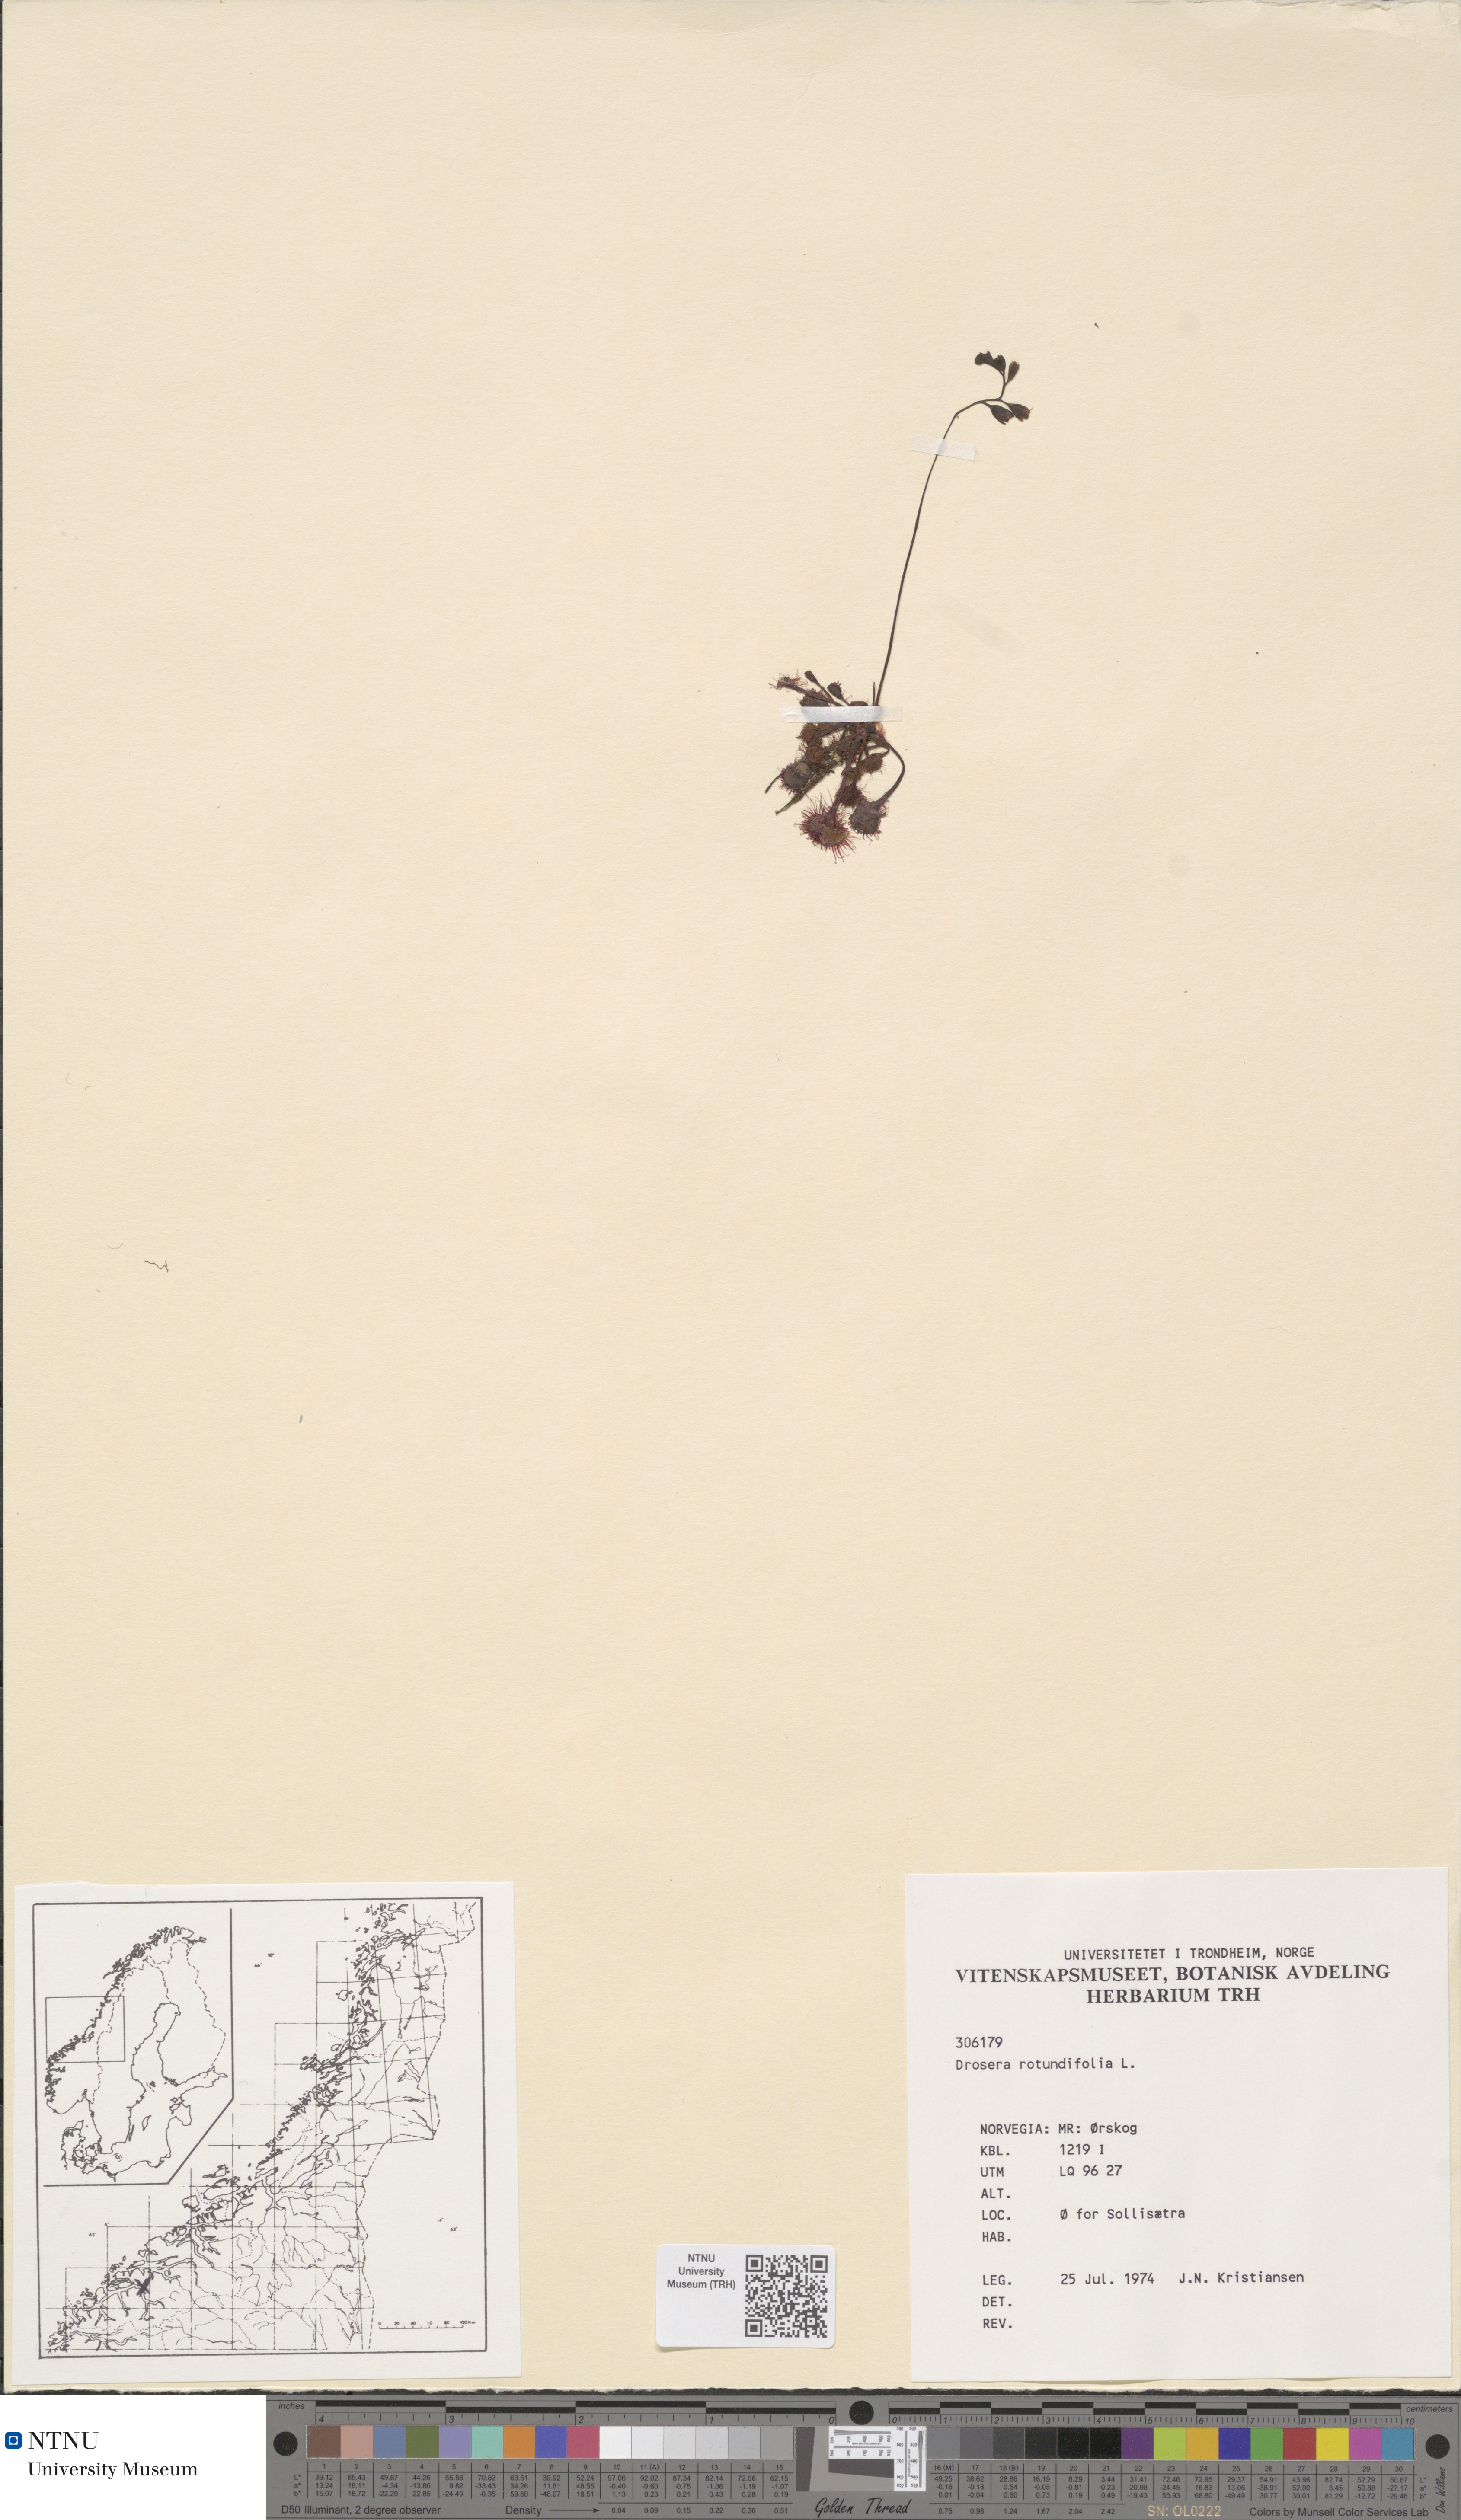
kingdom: Plantae
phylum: Tracheophyta
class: Magnoliopsida
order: Caryophyllales
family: Droseraceae
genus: Drosera
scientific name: Drosera rotundifolia
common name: Round-leaved sundew
